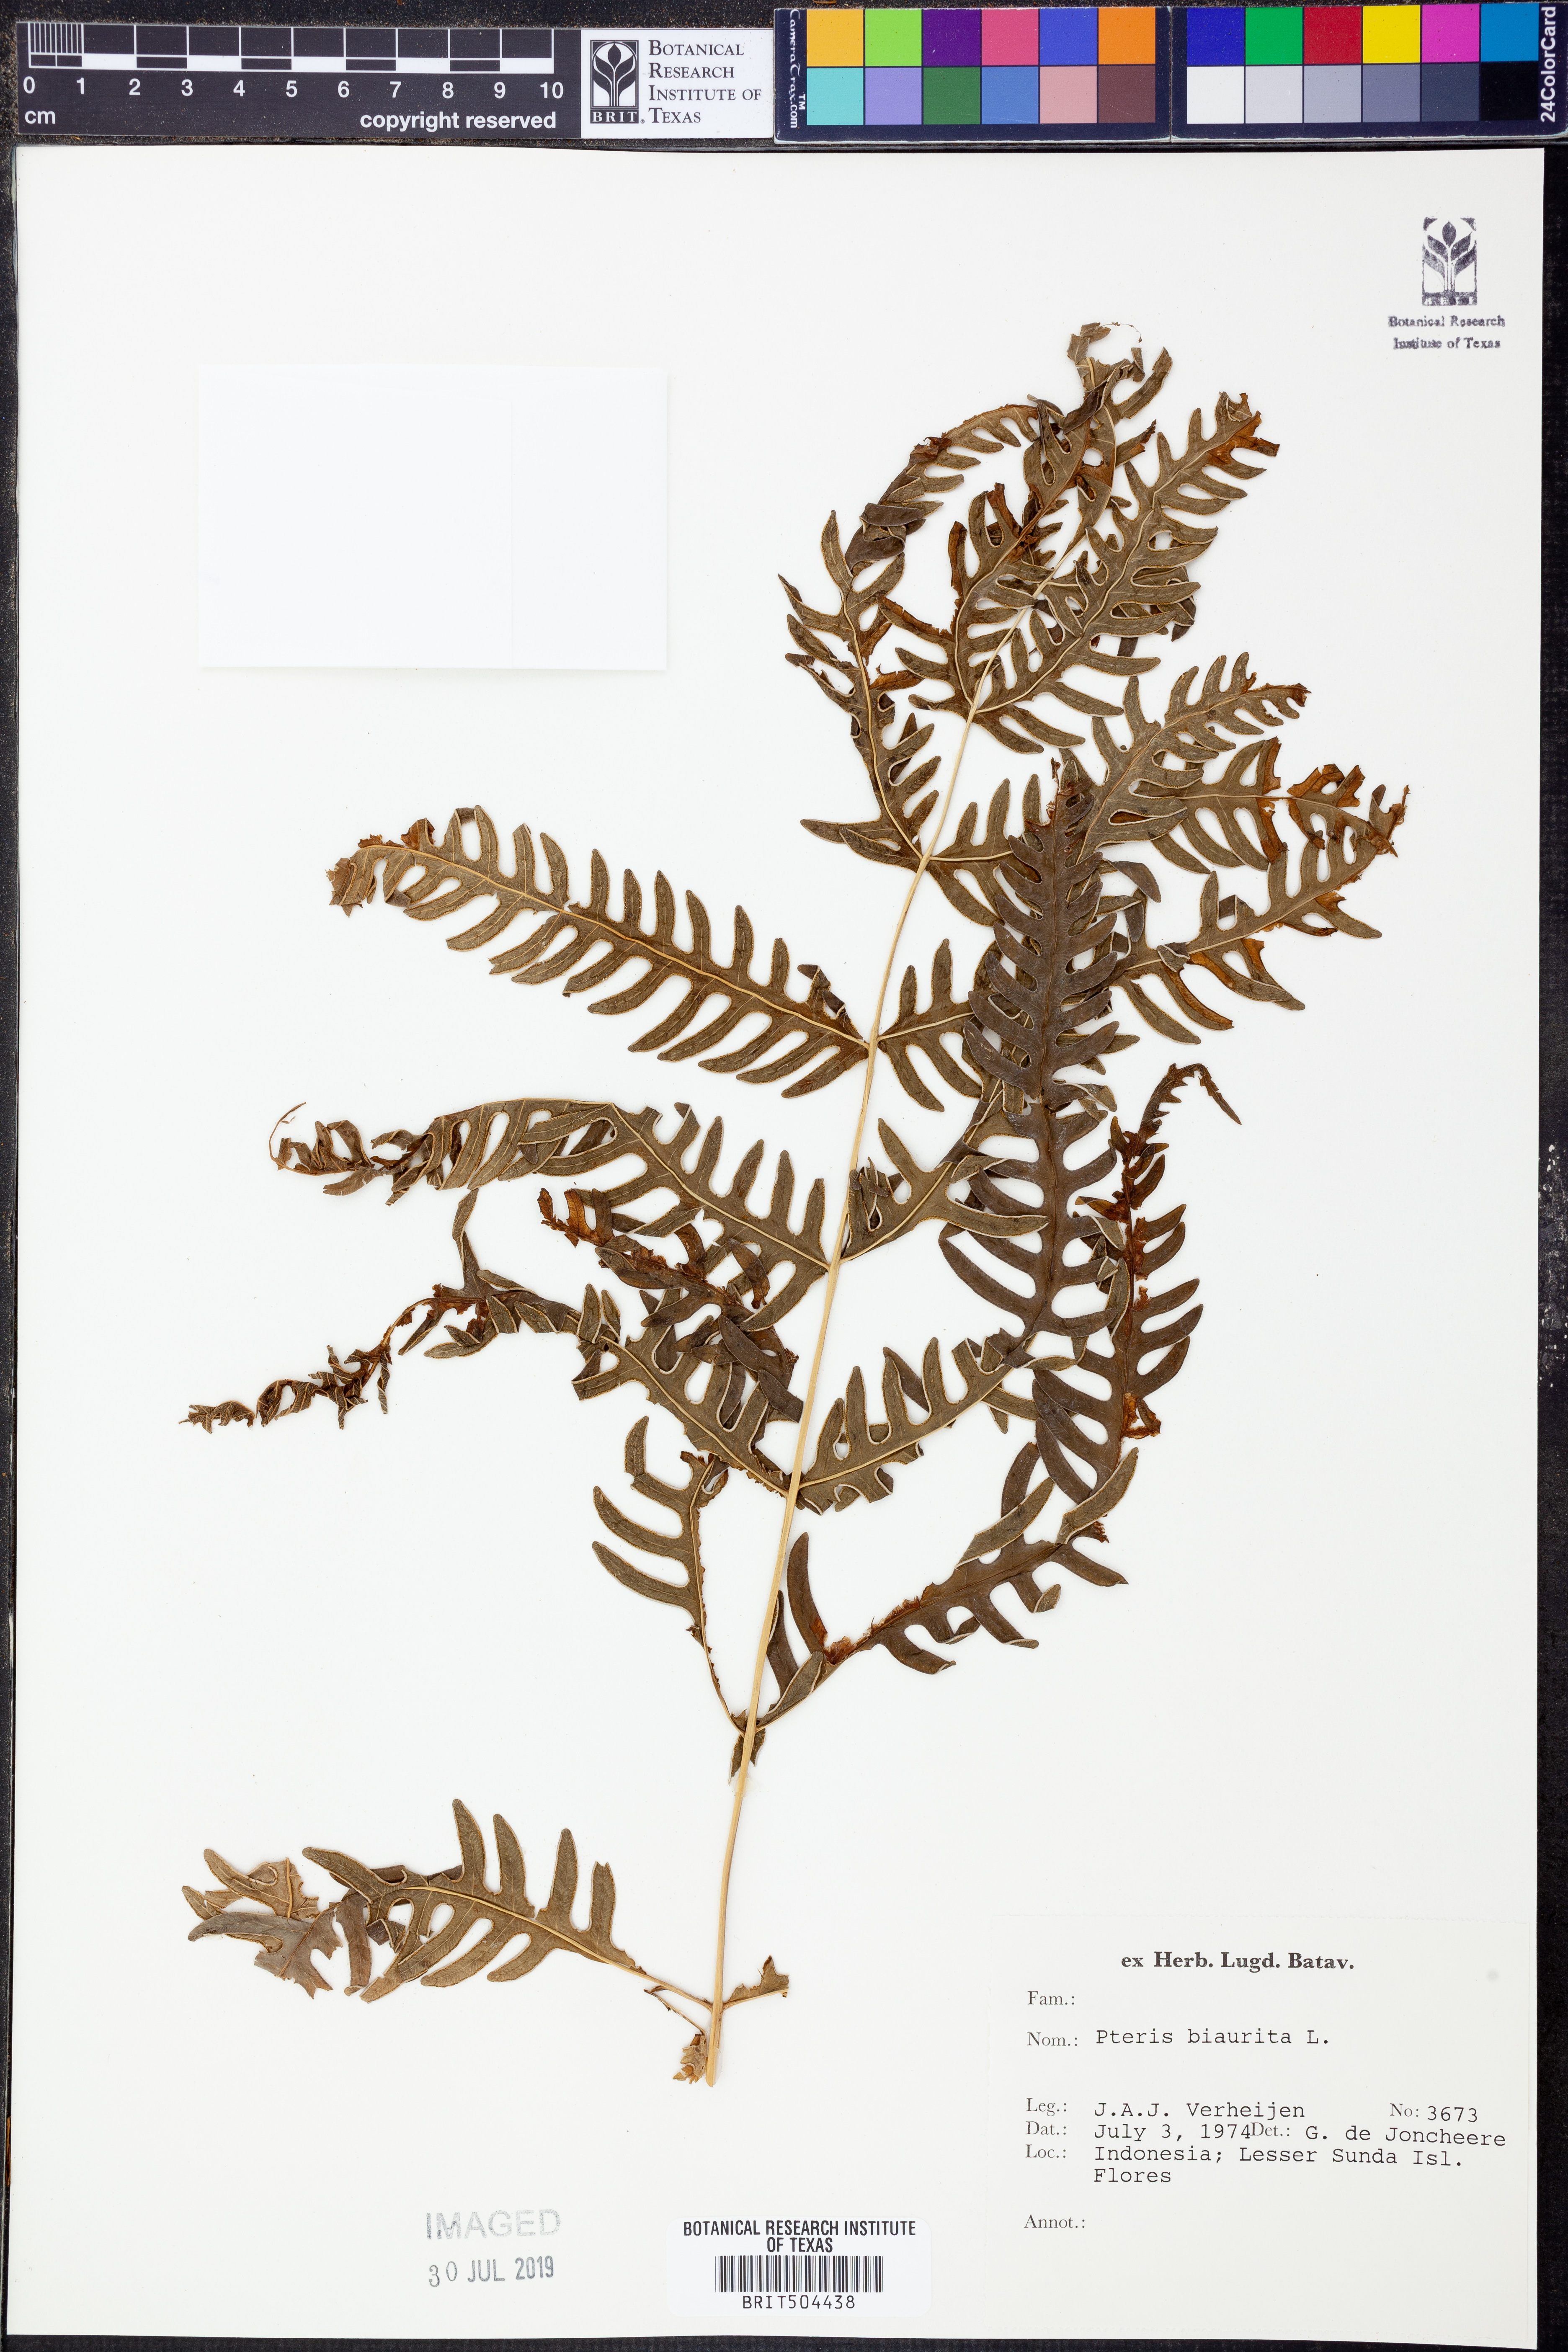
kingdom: Plantae
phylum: Tracheophyta
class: Polypodiopsida
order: Polypodiales
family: Pteridaceae
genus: Pteris
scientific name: Pteris biaurita
